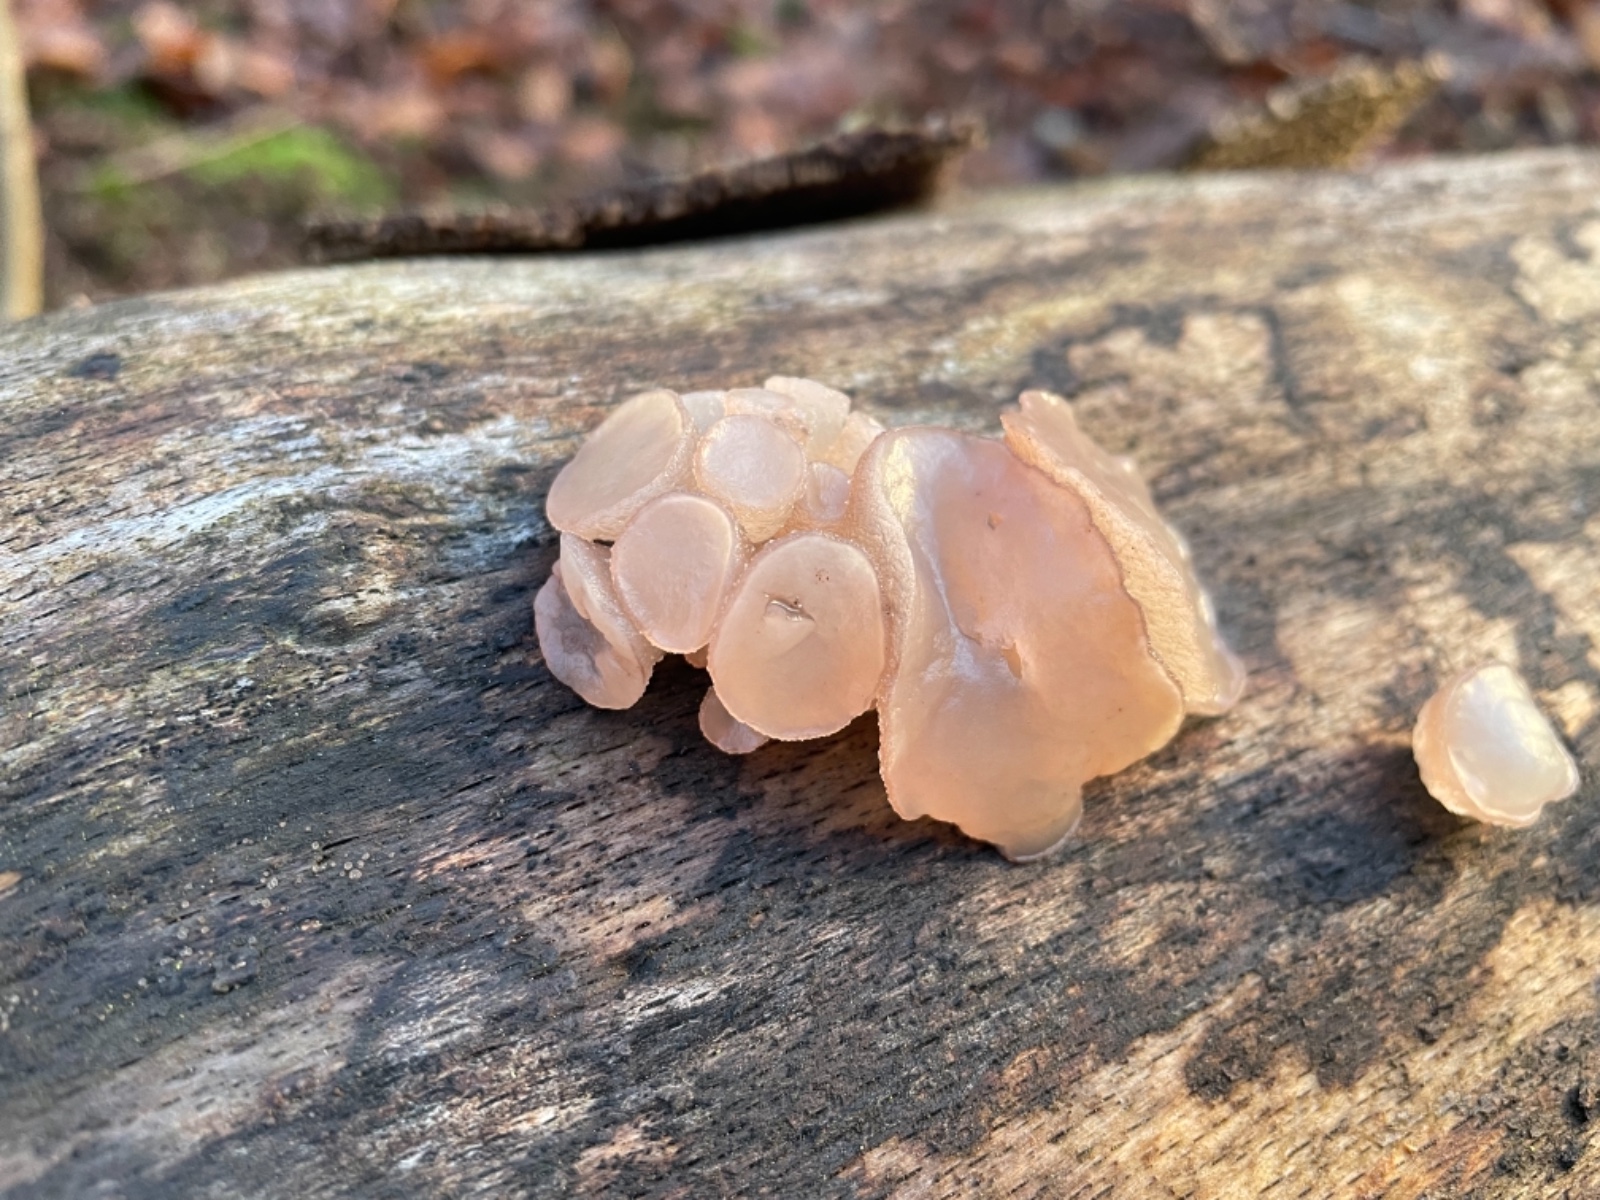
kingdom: Fungi
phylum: Ascomycota
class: Leotiomycetes
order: Helotiales
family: Gelatinodiscaceae
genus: Neobulgaria
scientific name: Neobulgaria pura
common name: bleg bævreskive
